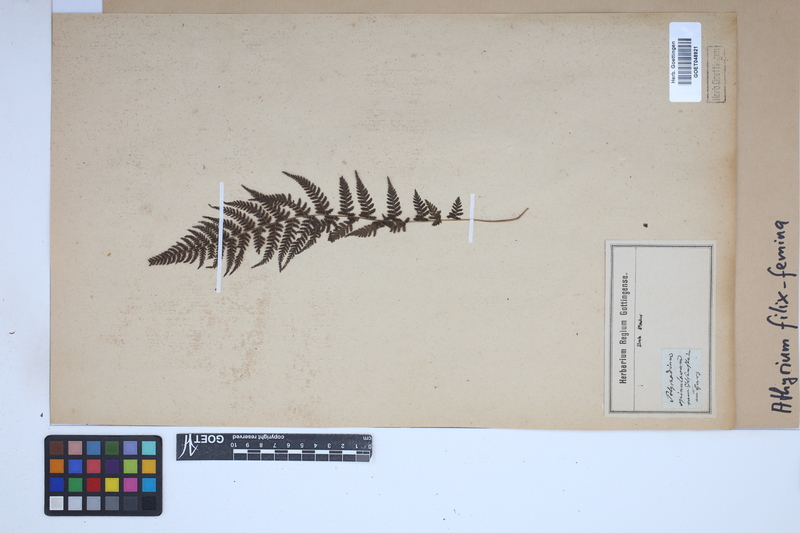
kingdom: Plantae
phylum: Tracheophyta
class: Polypodiopsida
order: Polypodiales
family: Athyriaceae
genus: Athyrium
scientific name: Athyrium filix-femina
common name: Lady fern
